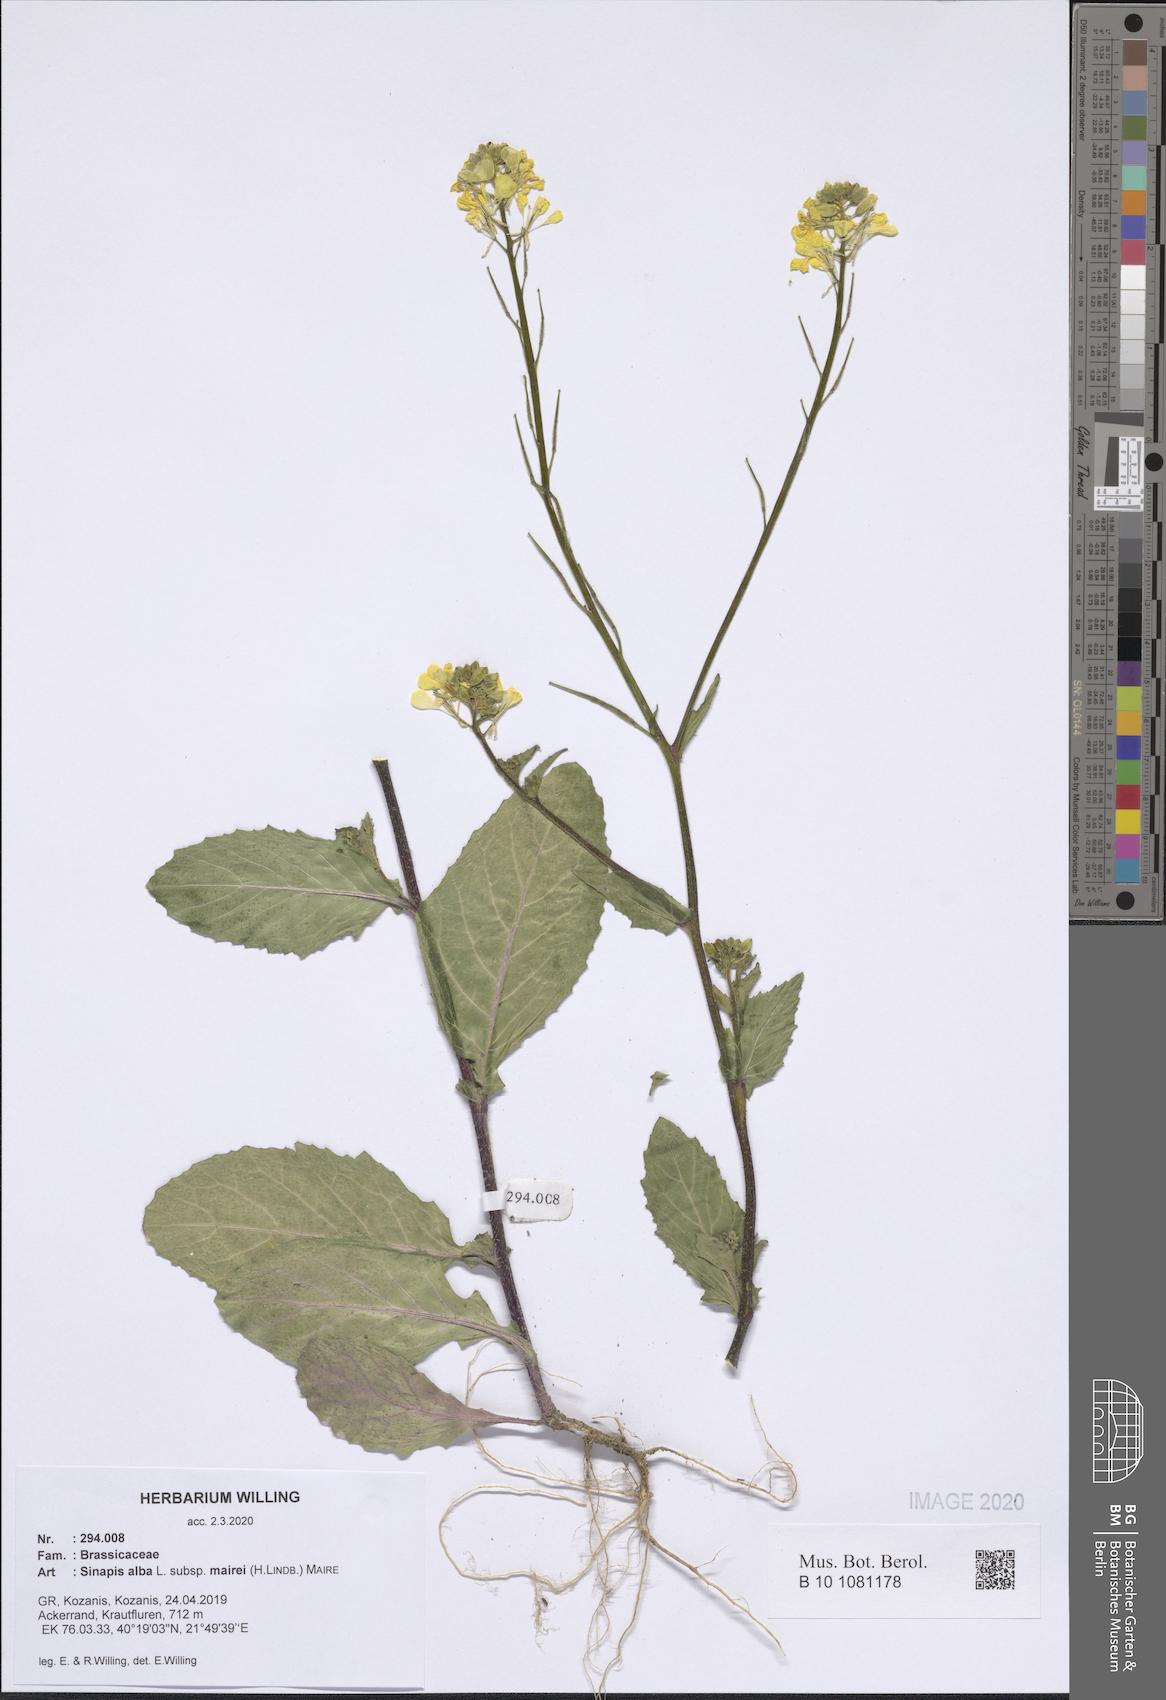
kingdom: Plantae
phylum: Tracheophyta
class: Magnoliopsida
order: Brassicales
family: Brassicaceae
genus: Sinapis
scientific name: Sinapis alba
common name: White mustard
